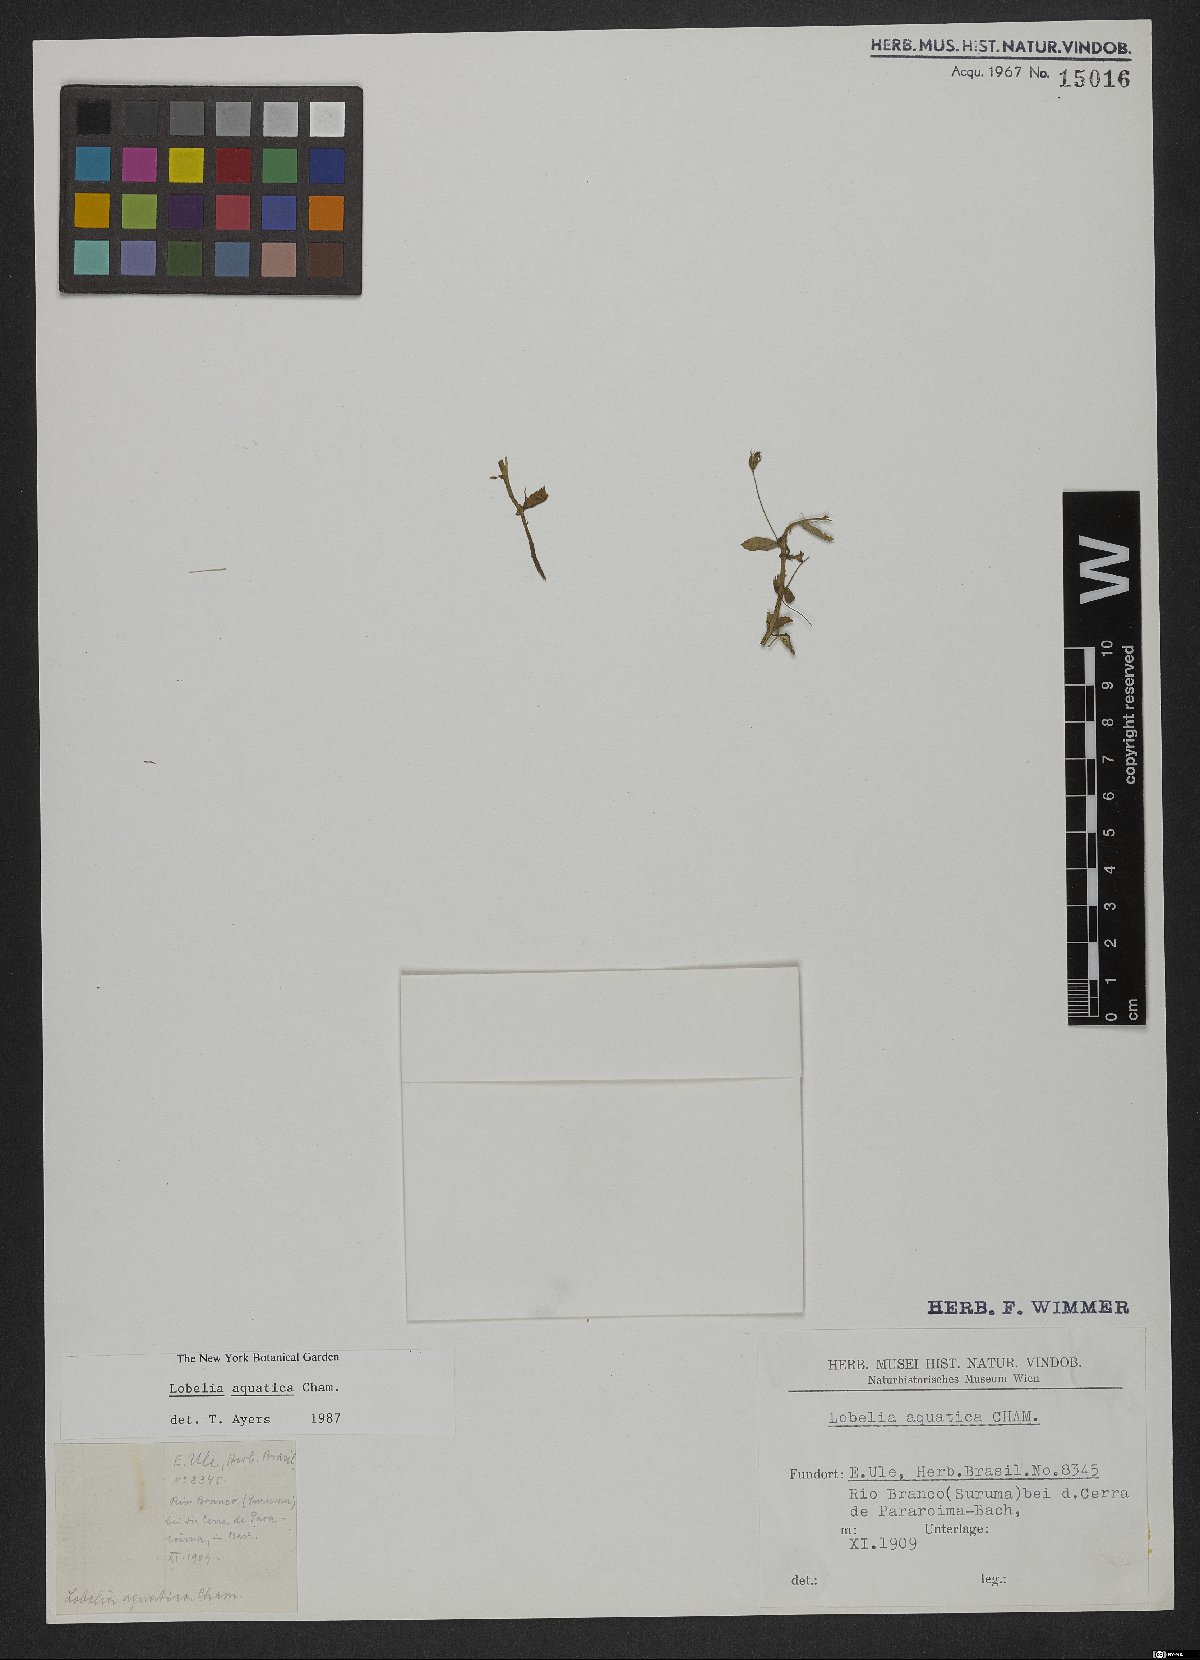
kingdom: Plantae
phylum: Tracheophyta
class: Magnoliopsida
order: Asterales
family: Campanulaceae
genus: Lobelia
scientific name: Lobelia aquatica
